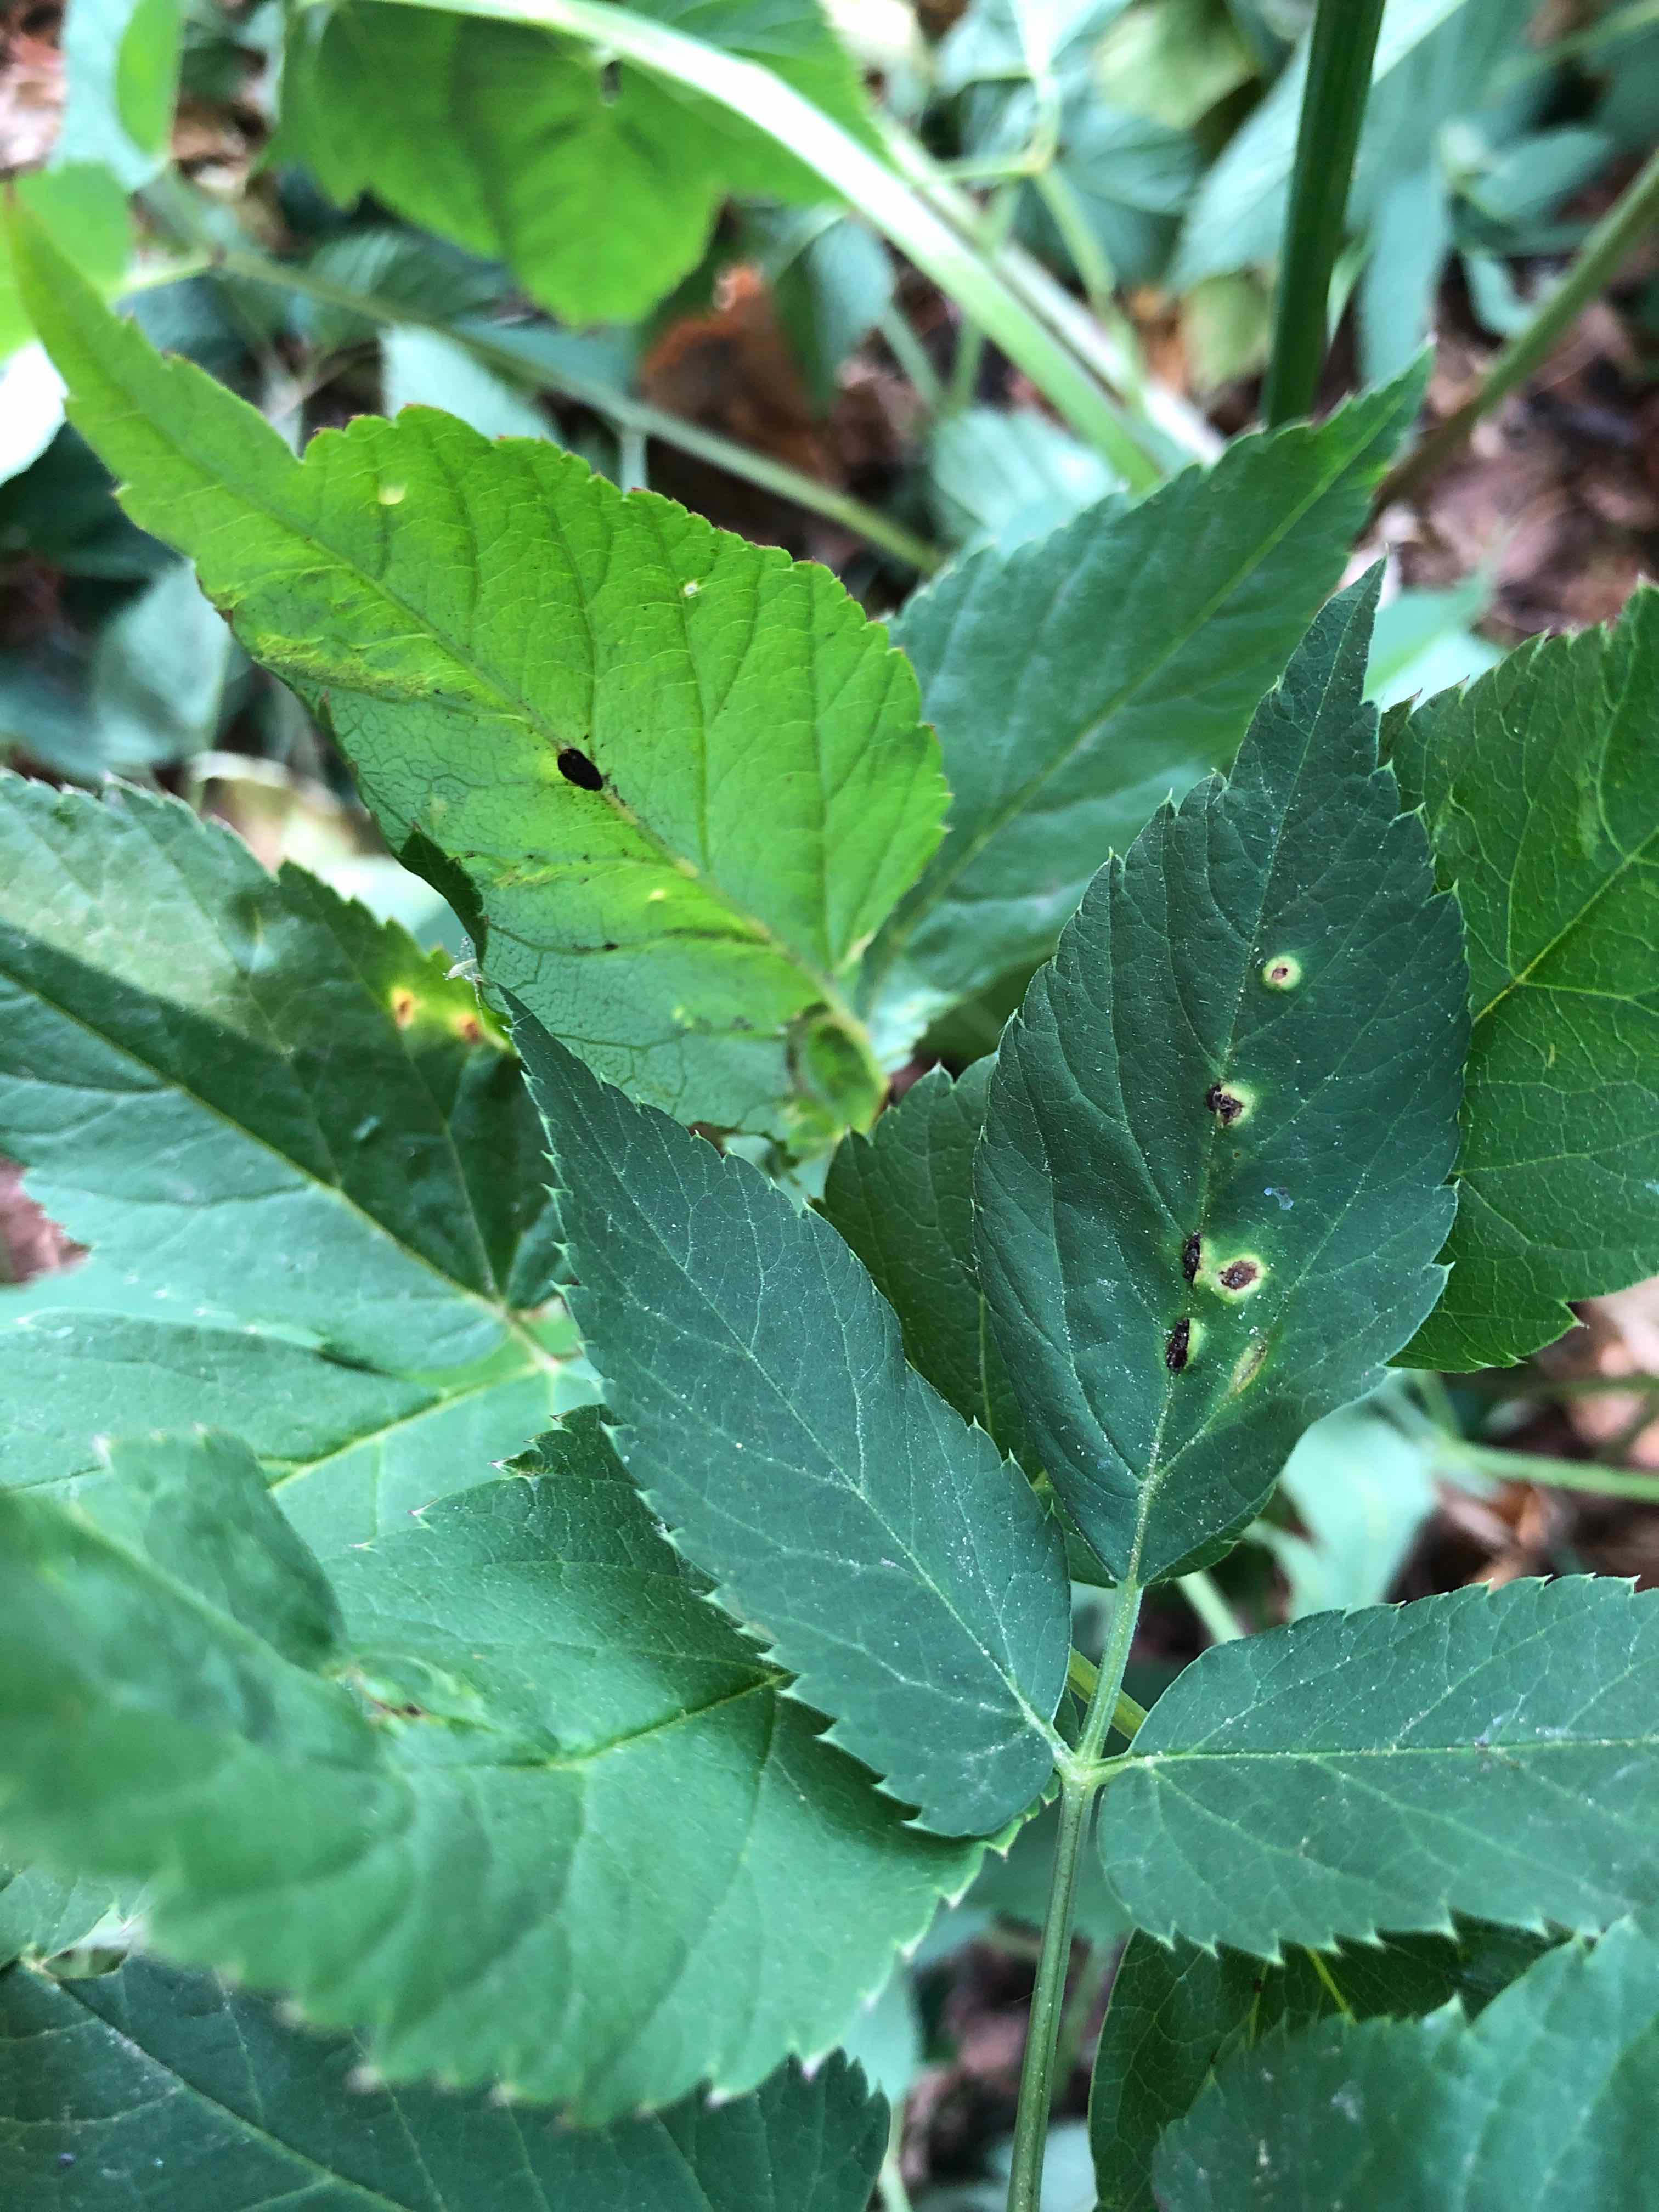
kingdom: Fungi
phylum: Basidiomycota
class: Pucciniomycetes
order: Pucciniales
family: Pucciniaceae
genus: Puccinia
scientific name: Puccinia
